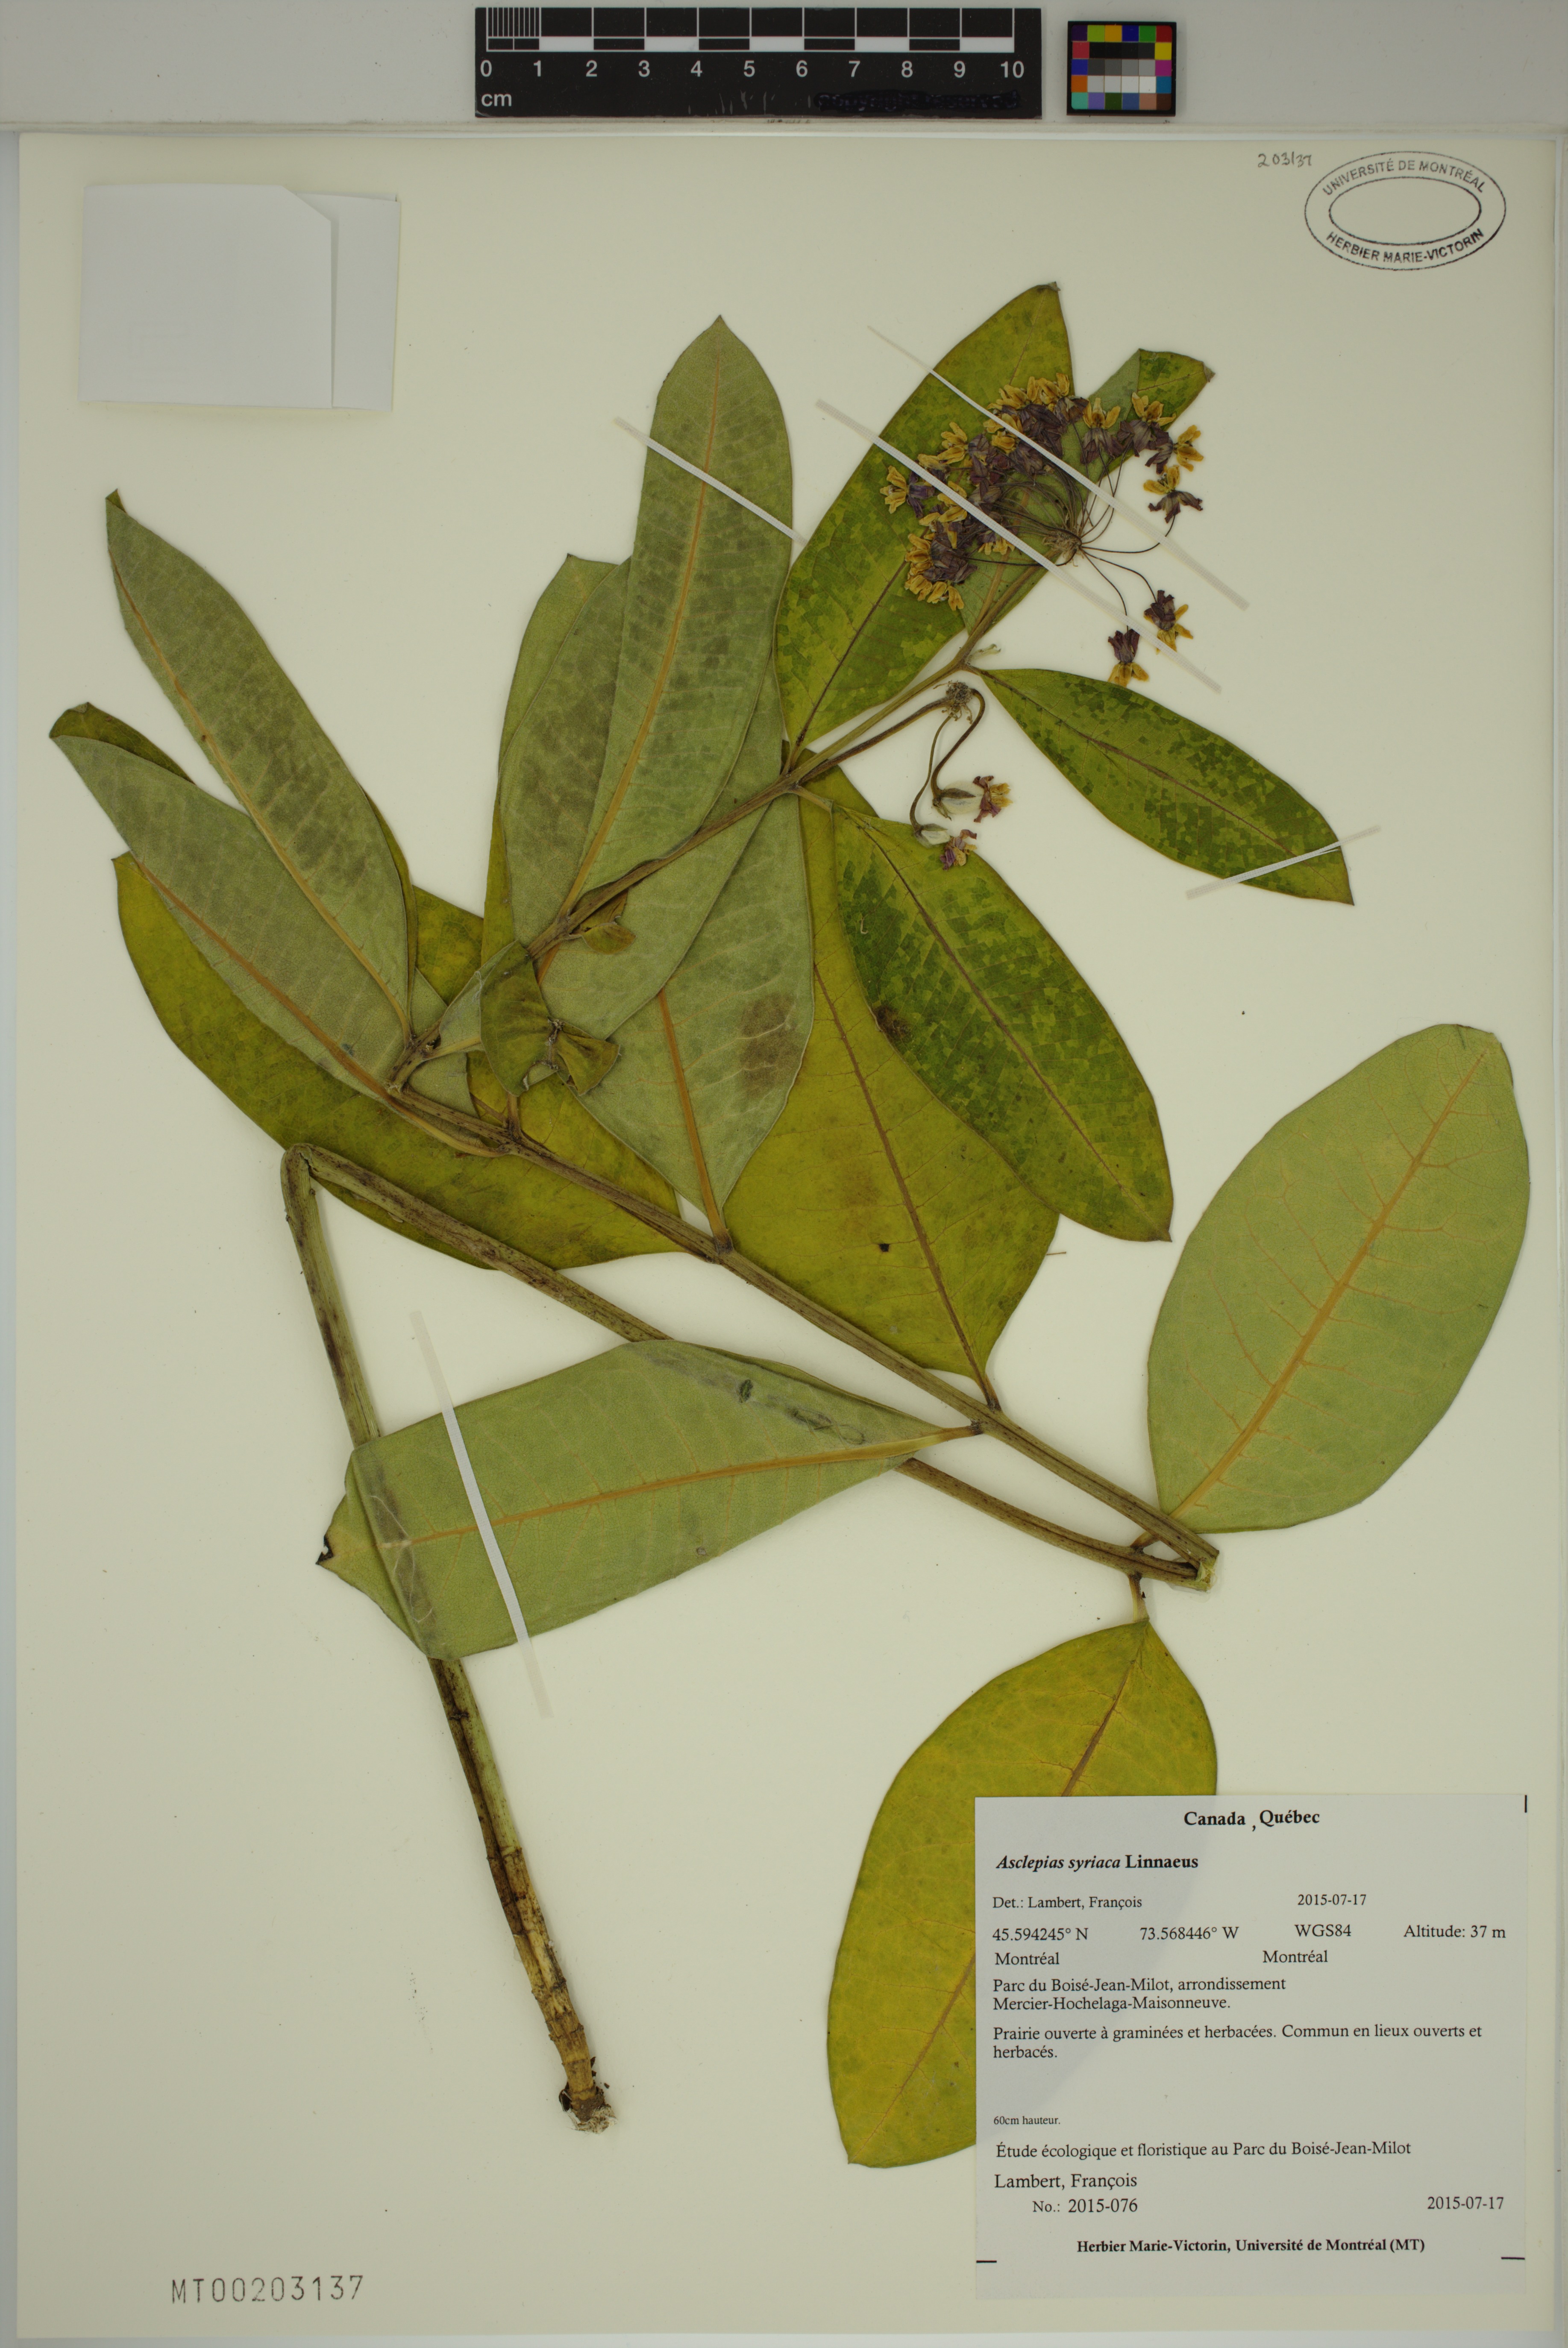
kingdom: Plantae
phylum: Tracheophyta
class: Magnoliopsida
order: Gentianales
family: Apocynaceae
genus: Asclepias
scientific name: Asclepias syriaca
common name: Common milkweed
